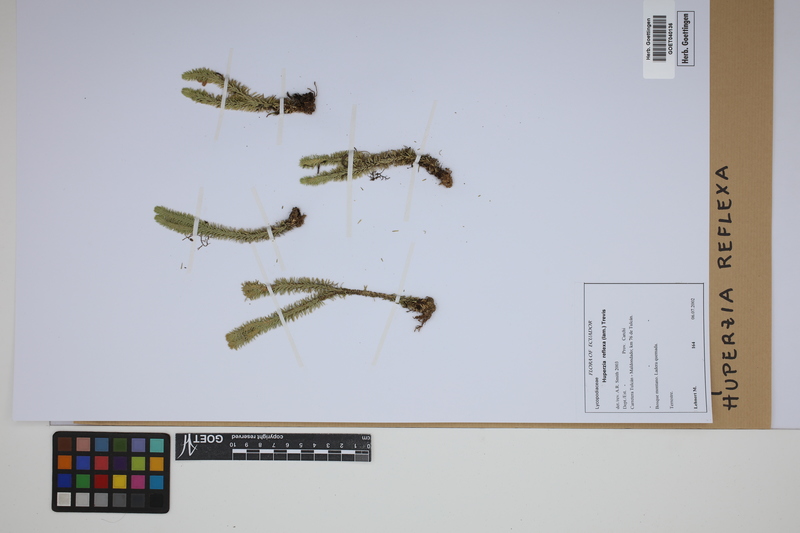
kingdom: Plantae
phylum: Tracheophyta
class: Lycopodiopsida
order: Lycopodiales
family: Lycopodiaceae
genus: Phlegmariurus
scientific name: Phlegmariurus reflexus
